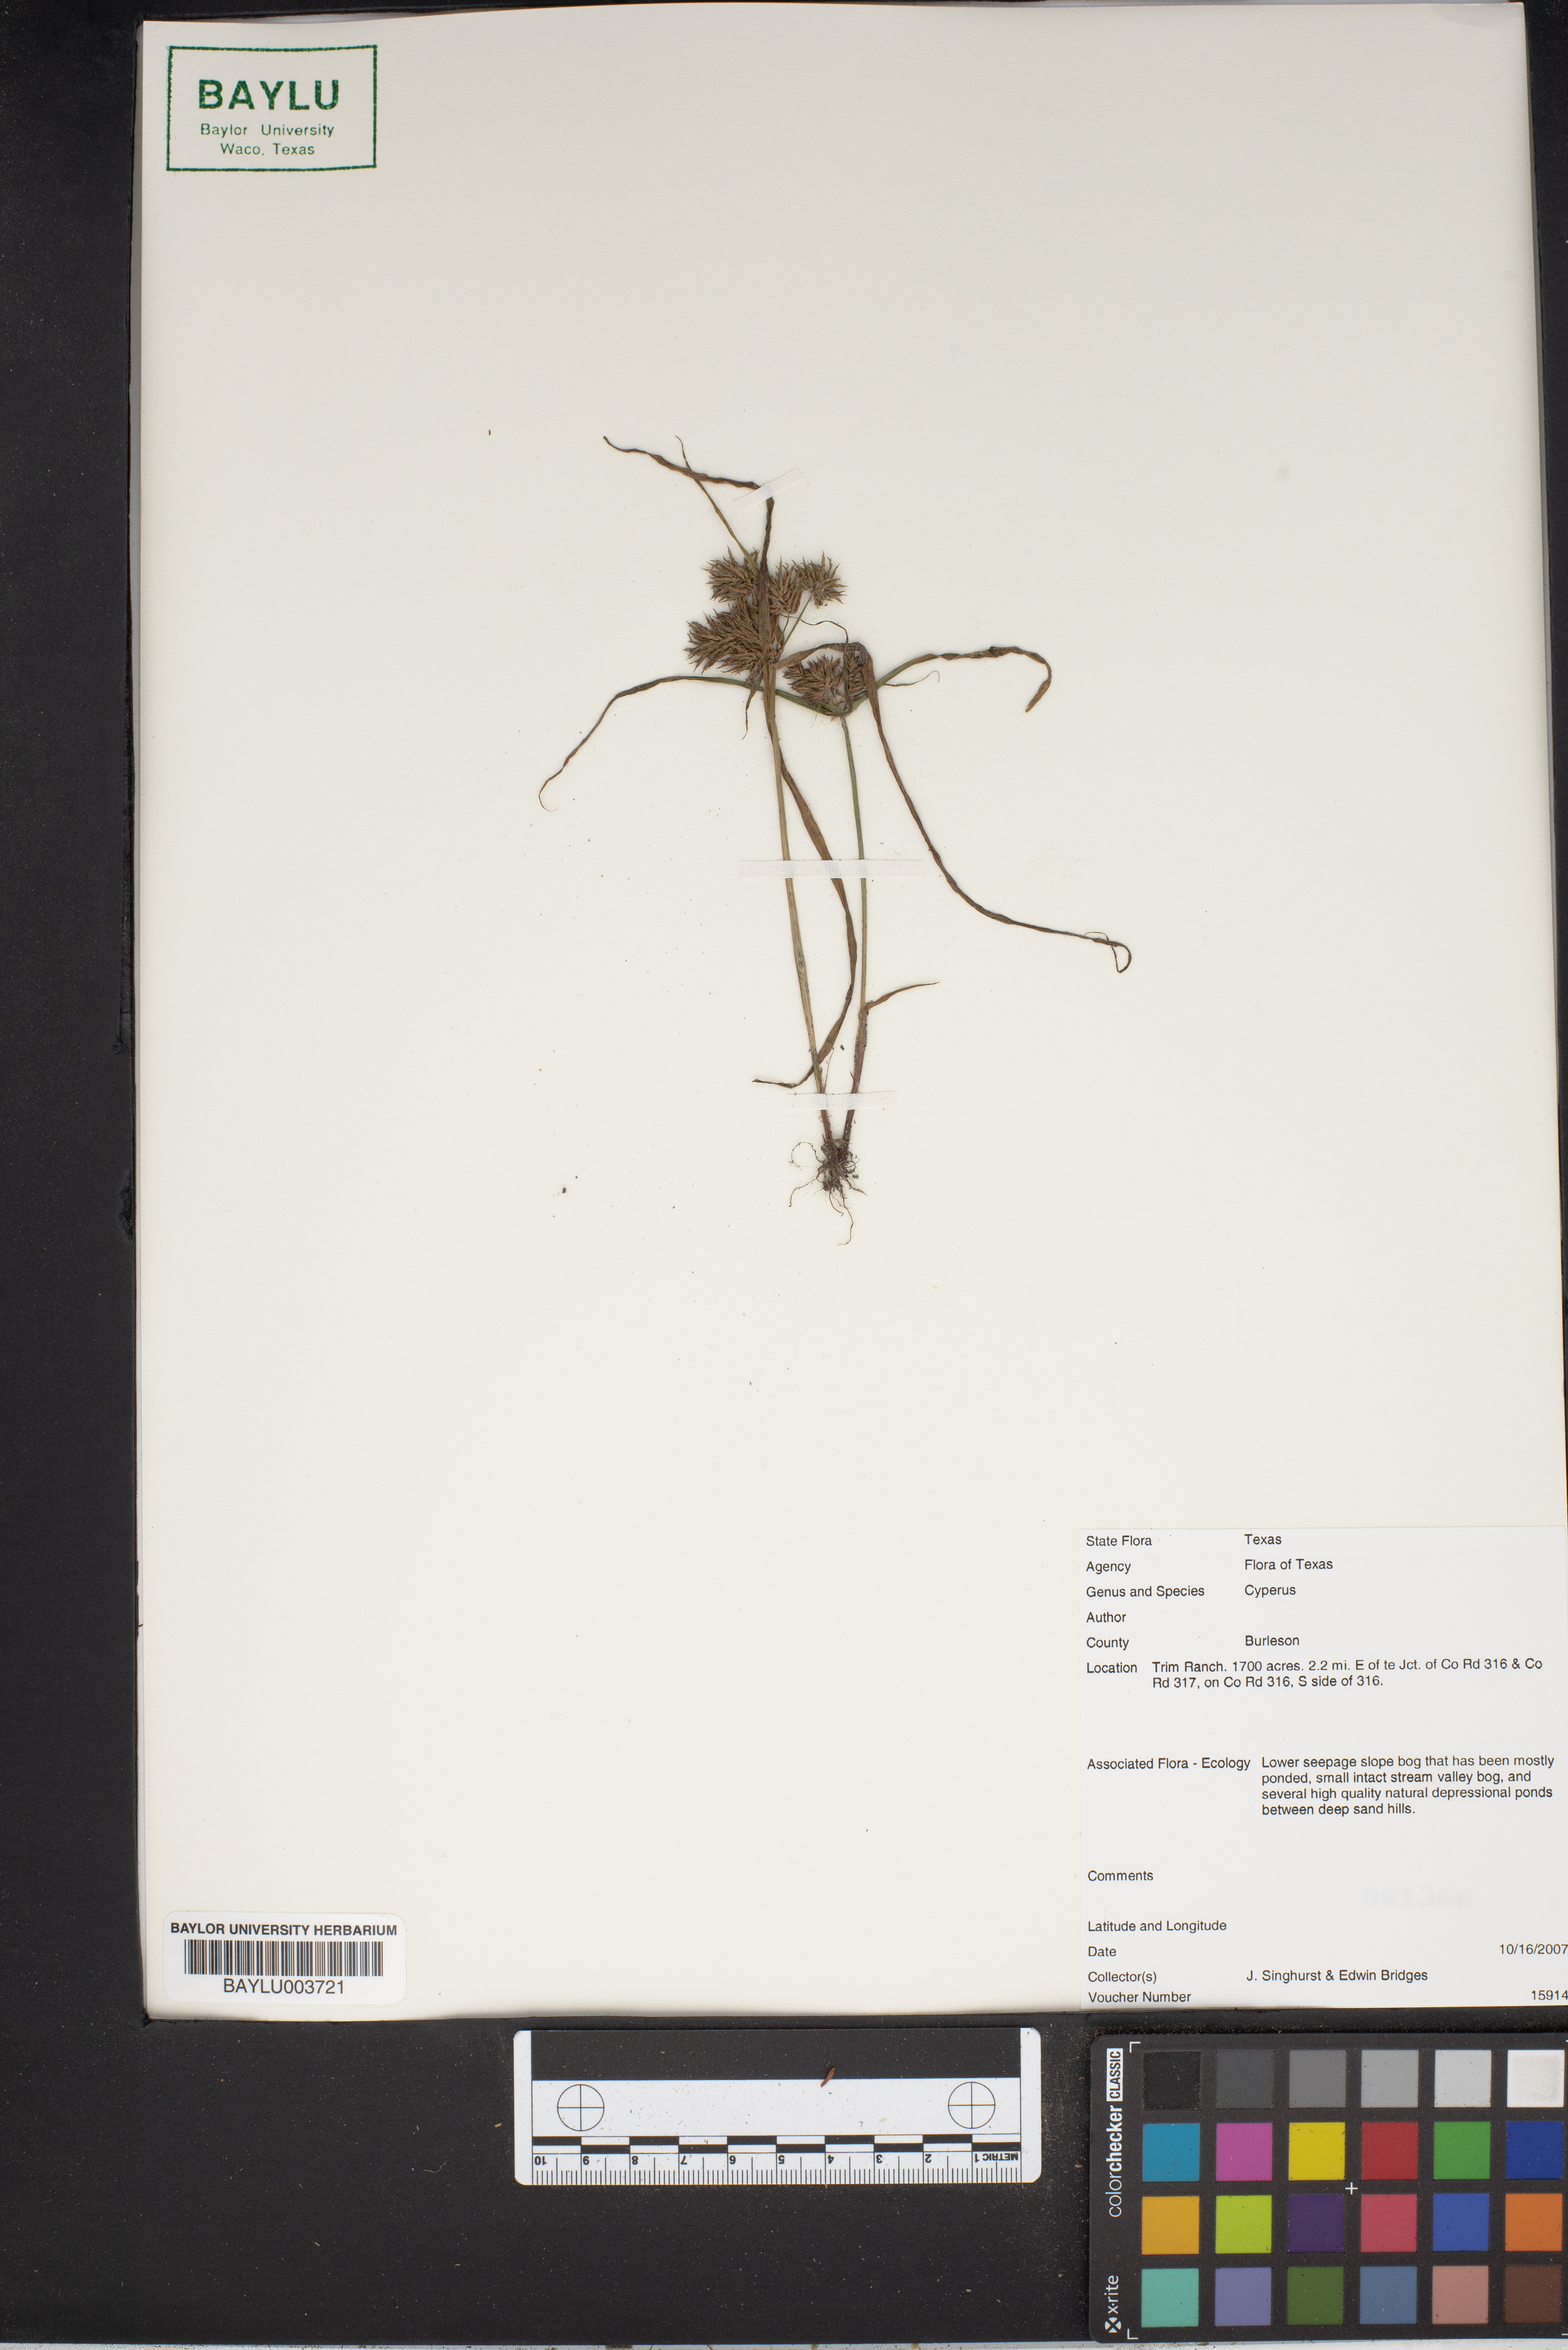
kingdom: Plantae
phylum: Tracheophyta
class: Liliopsida
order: Poales
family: Cyperaceae
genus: Cyperus
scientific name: Cyperus
